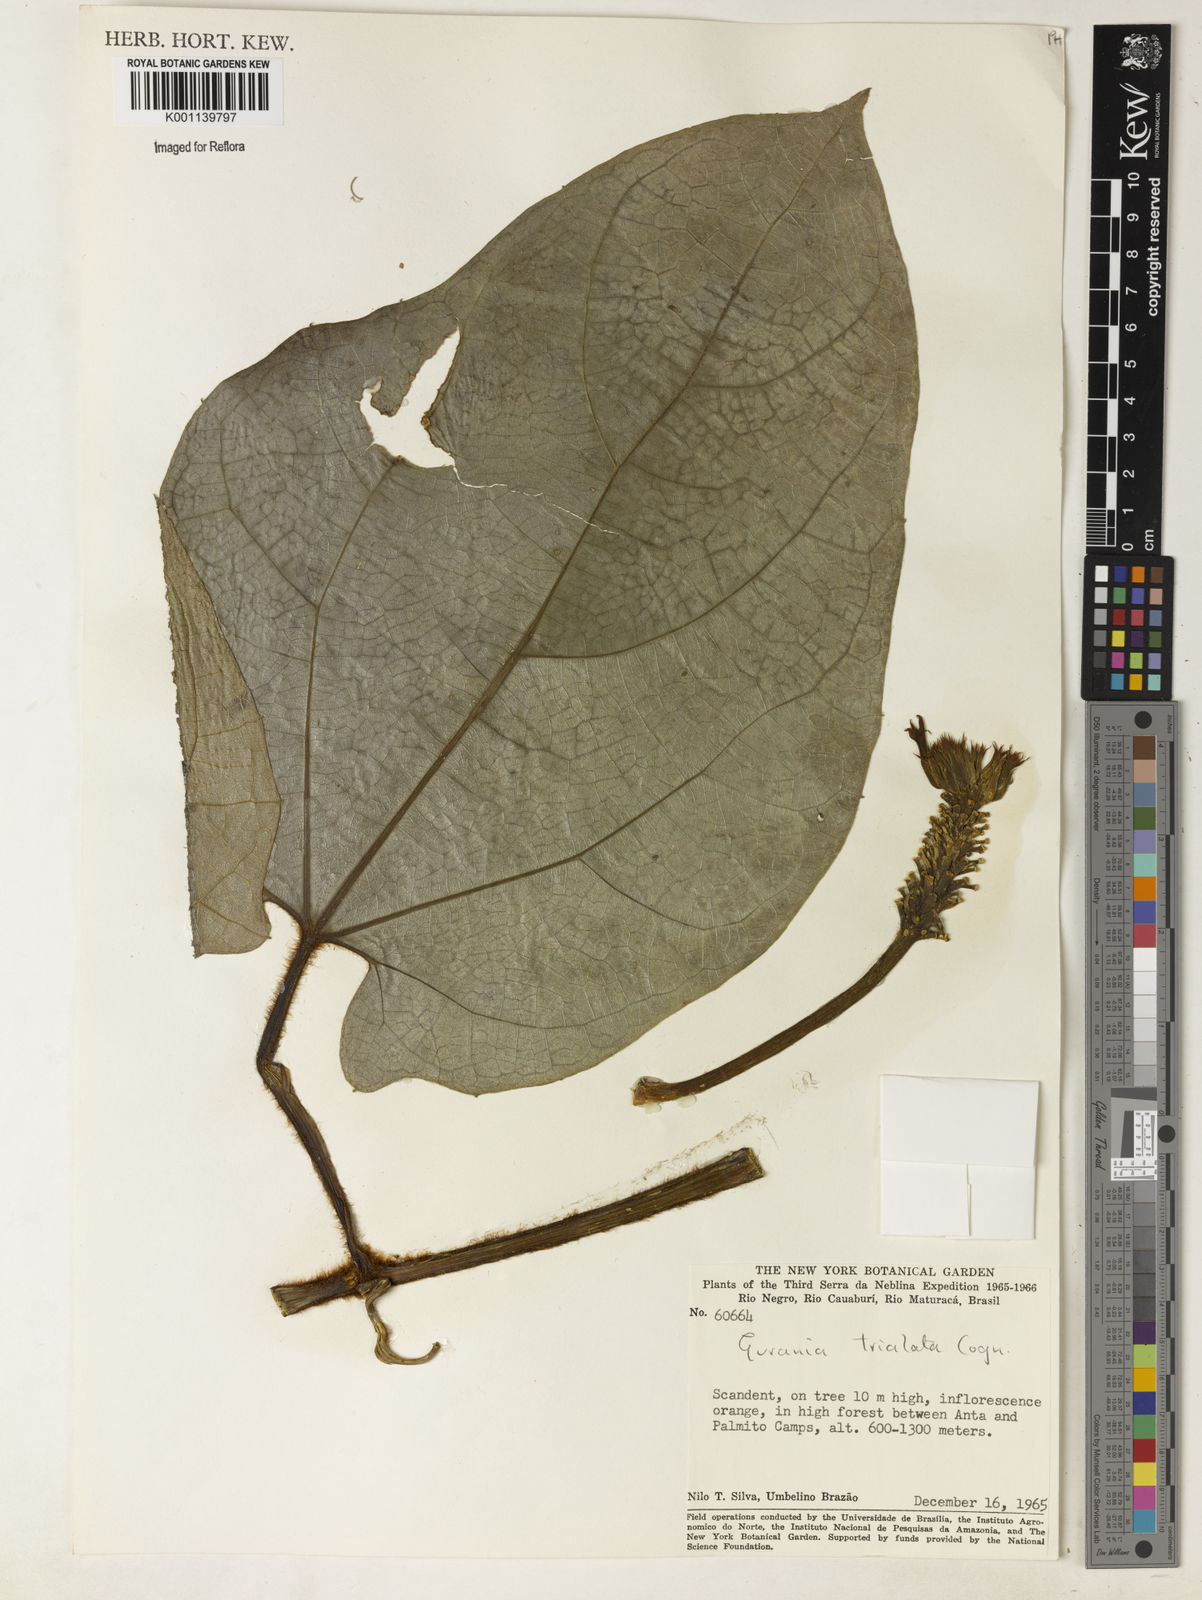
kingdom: Plantae
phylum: Tracheophyta
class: Magnoliopsida
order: Cucurbitales
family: Cucurbitaceae
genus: Gurania
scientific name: Gurania trialata
